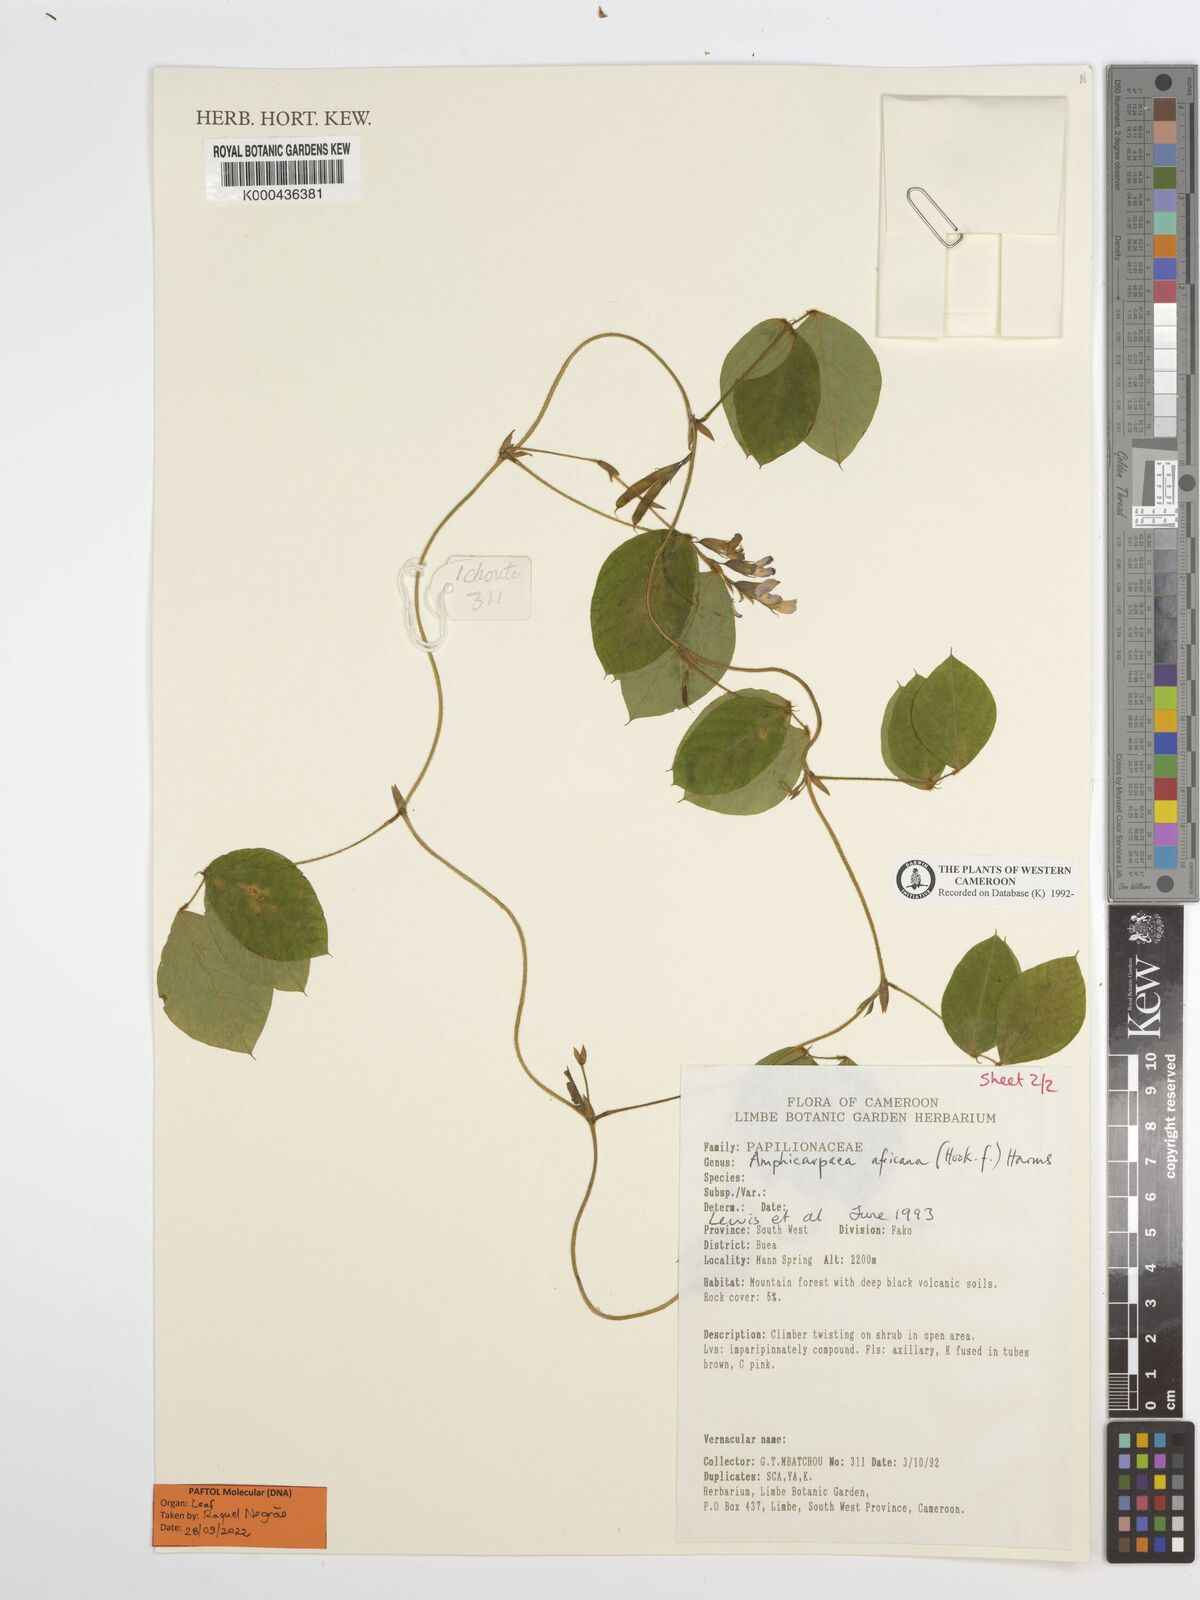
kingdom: Plantae
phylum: Tracheophyta
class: Magnoliopsida
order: Fabales
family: Fabaceae
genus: Afroamphica
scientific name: Afroamphica africana
